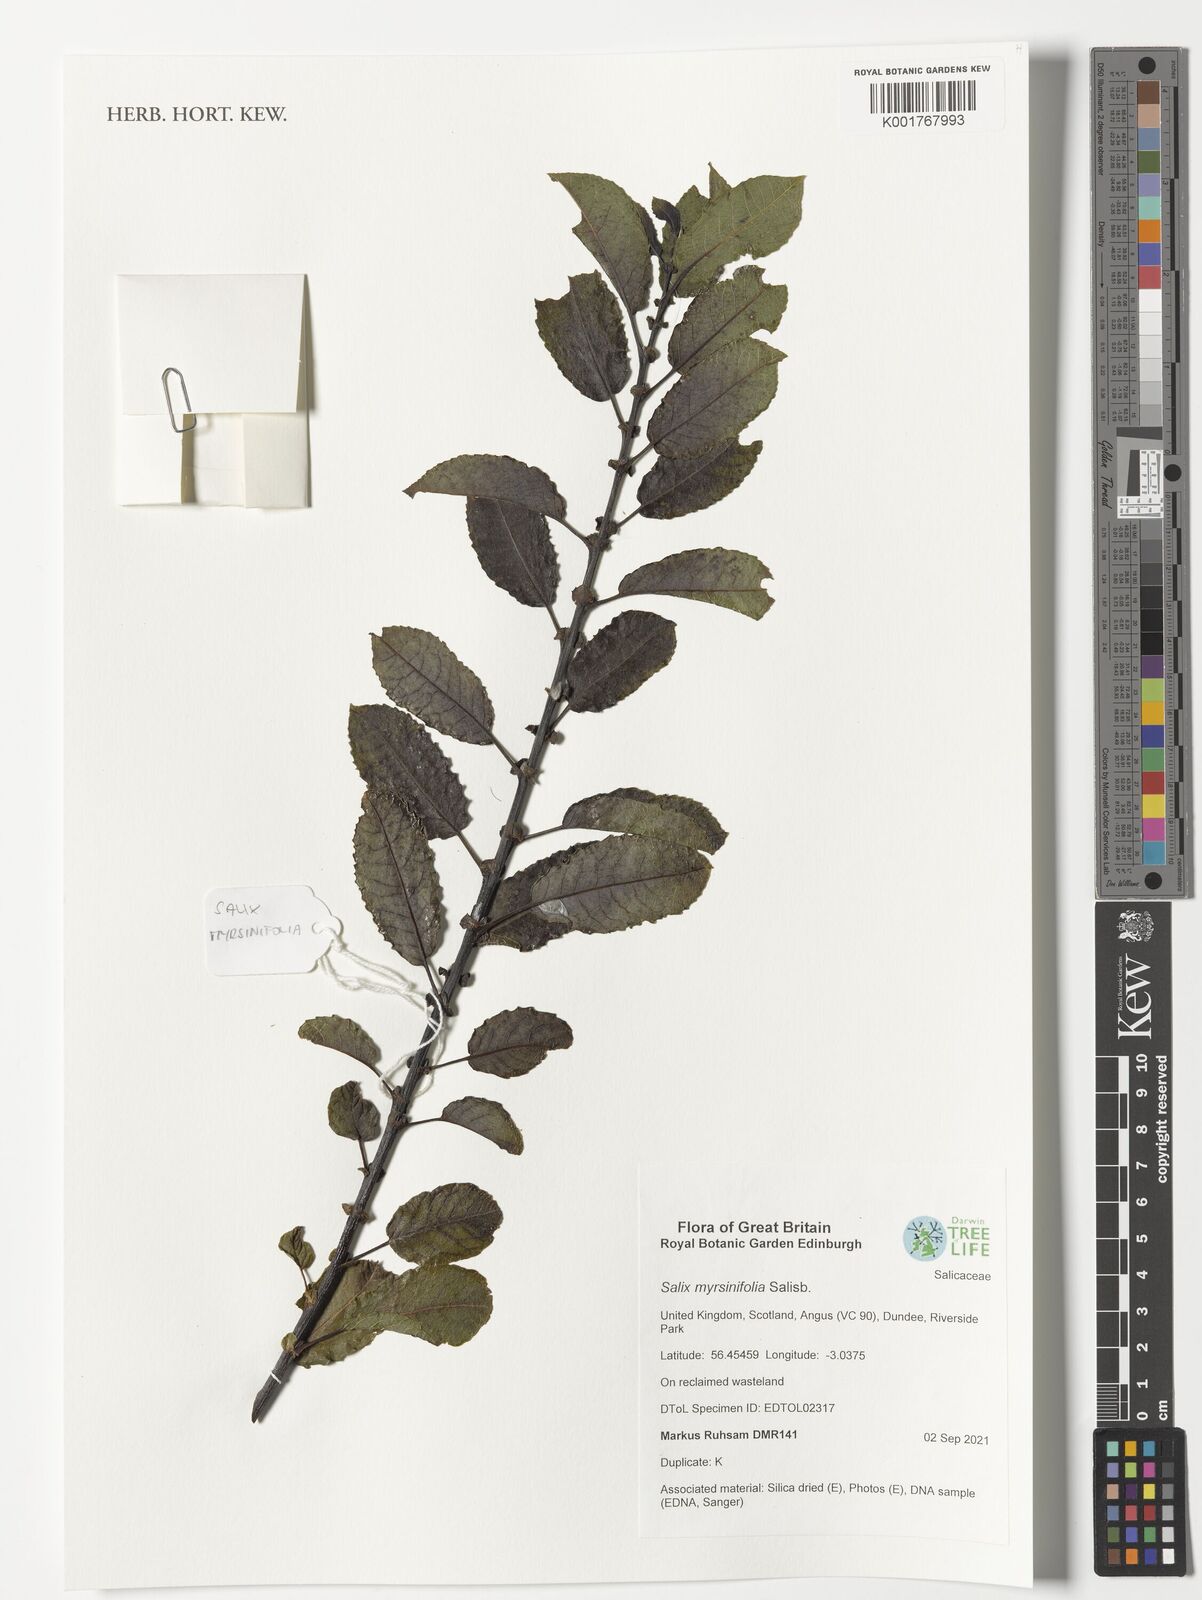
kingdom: Plantae
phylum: Tracheophyta
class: Magnoliopsida
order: Malpighiales
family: Salicaceae
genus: Salix
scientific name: Salix myrsinifolia
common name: Dark-leaved willow
